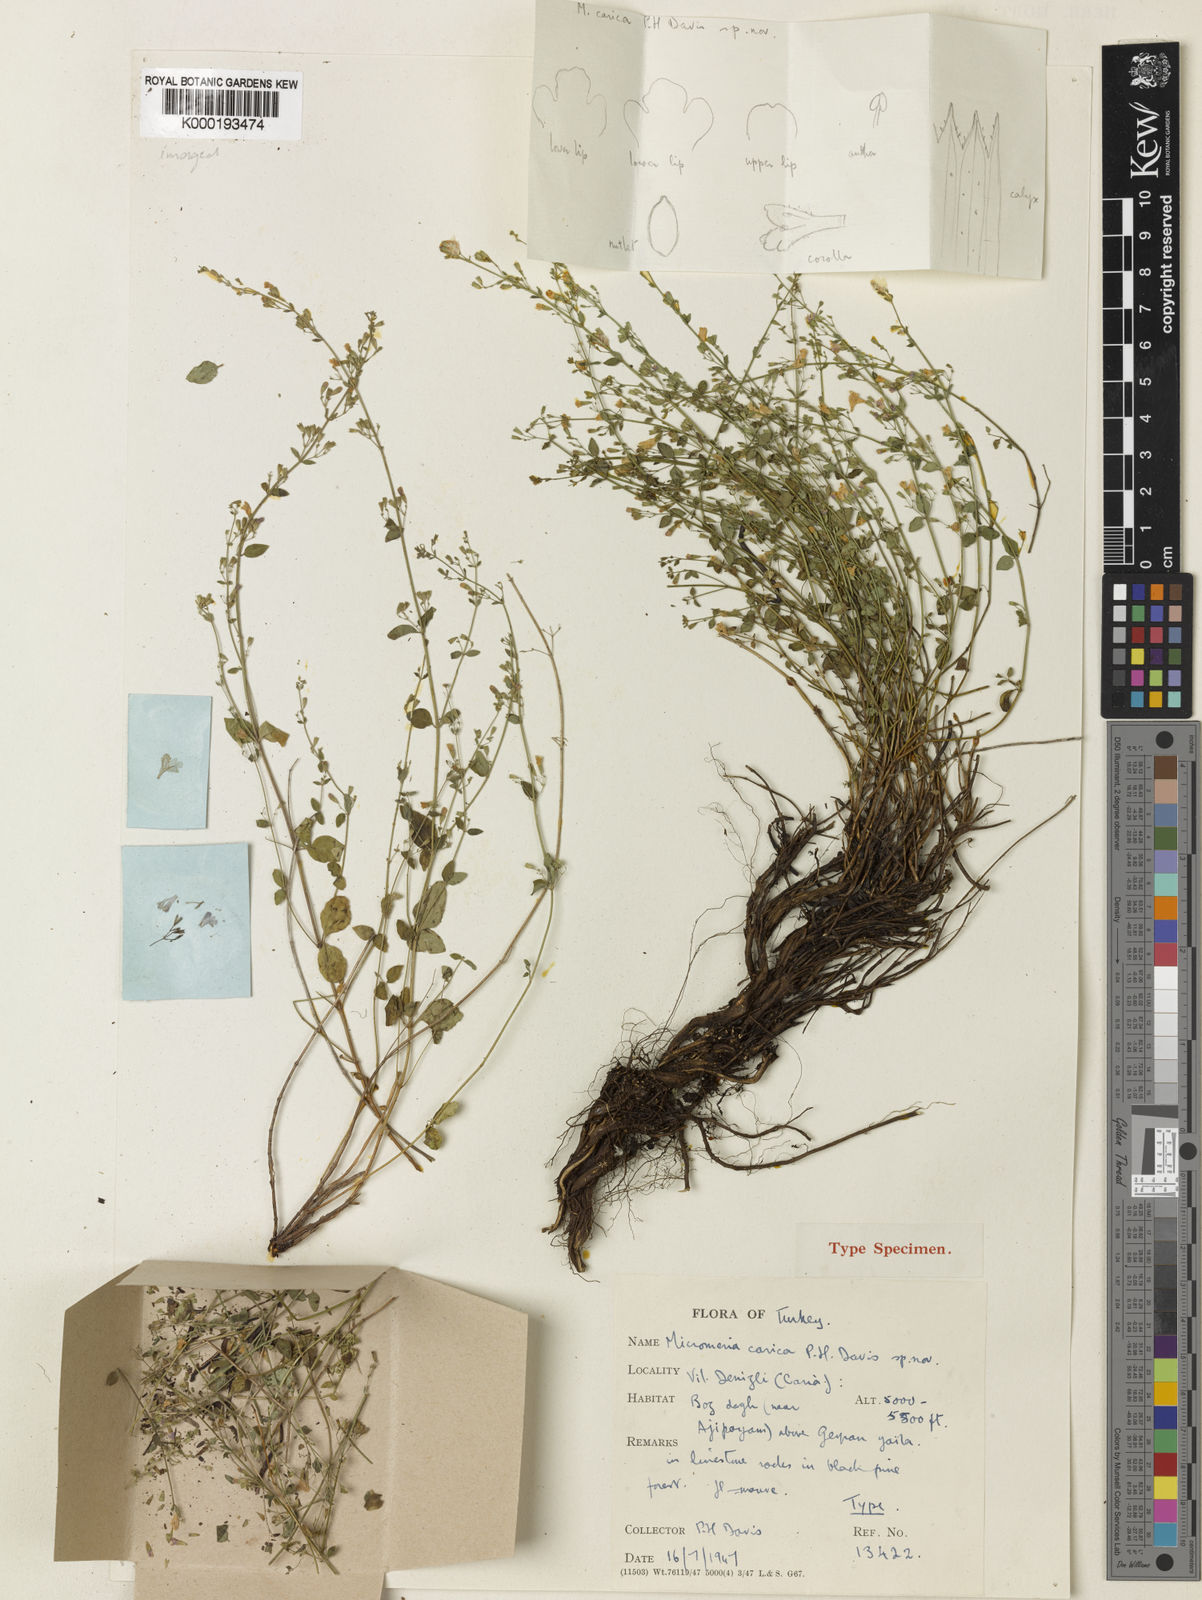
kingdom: Plantae
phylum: Tracheophyta
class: Magnoliopsida
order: Lamiales
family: Lamiaceae
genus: Clinopodium
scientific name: Clinopodium caricum
